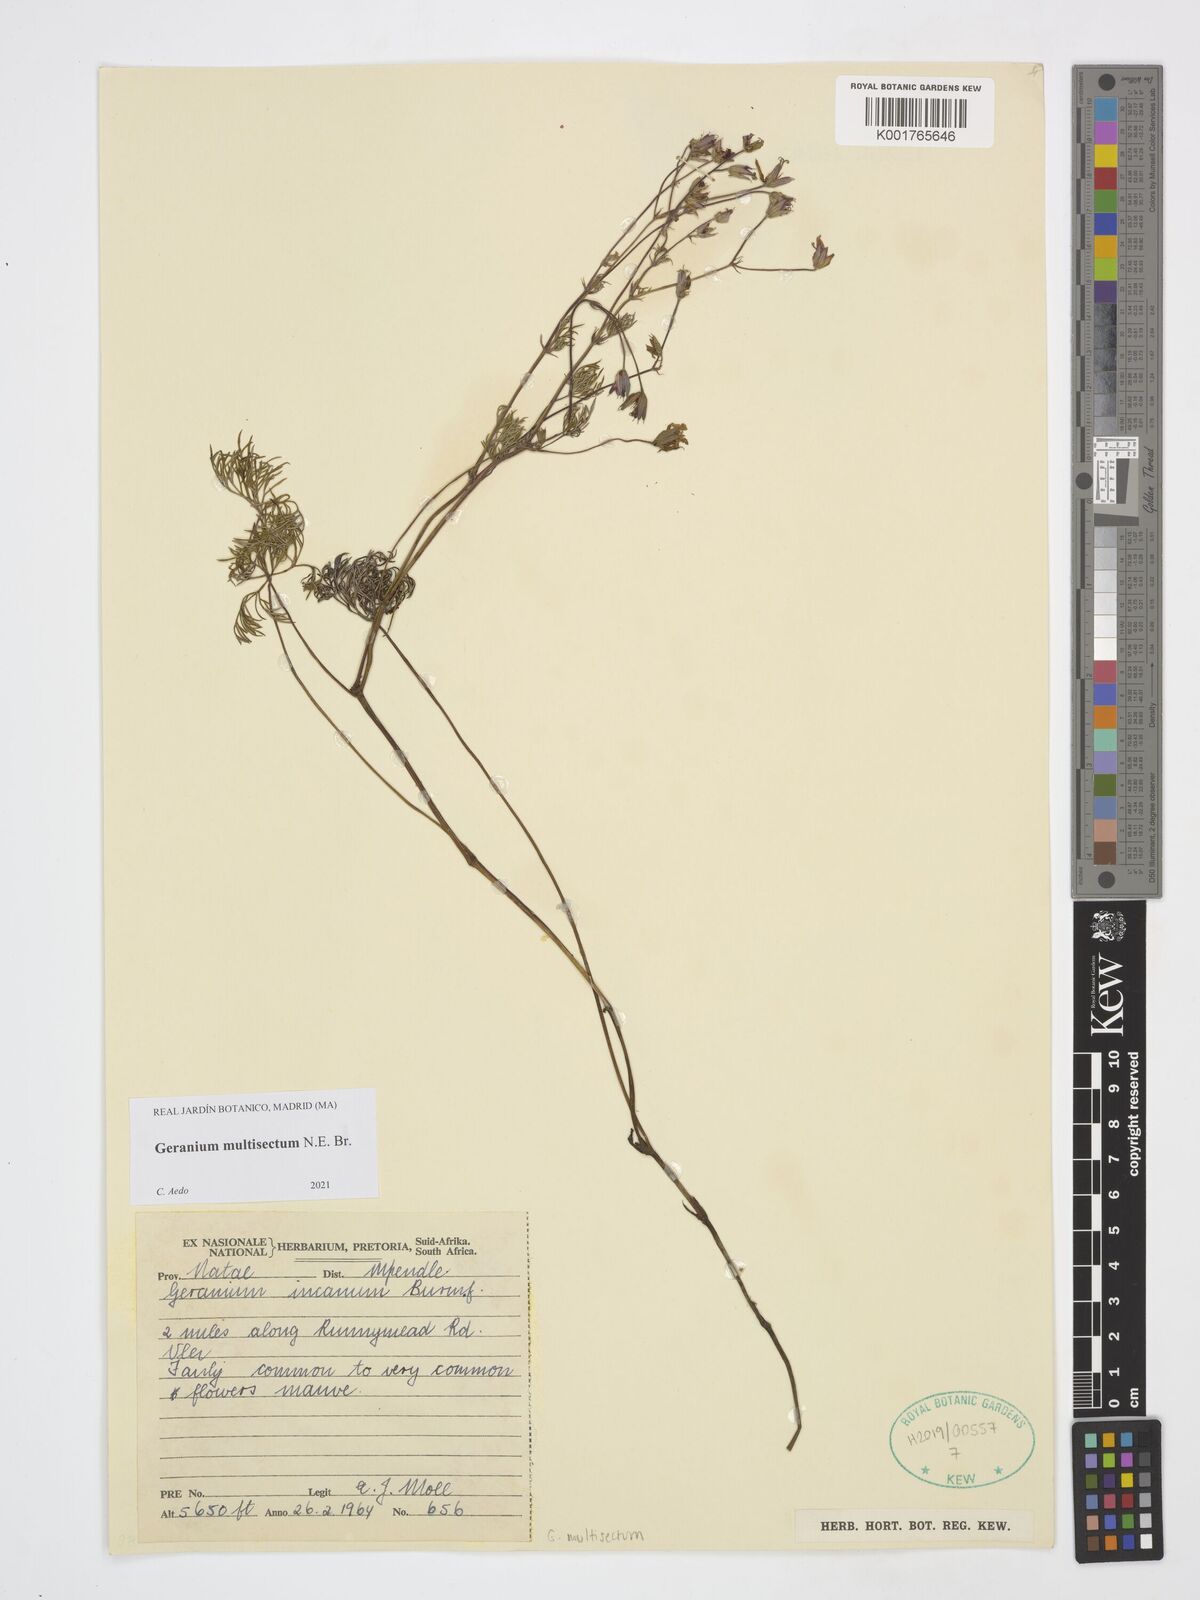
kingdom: Plantae
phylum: Tracheophyta
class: Magnoliopsida
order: Geraniales
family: Geraniaceae
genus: Geranium
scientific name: Geranium multisectum
